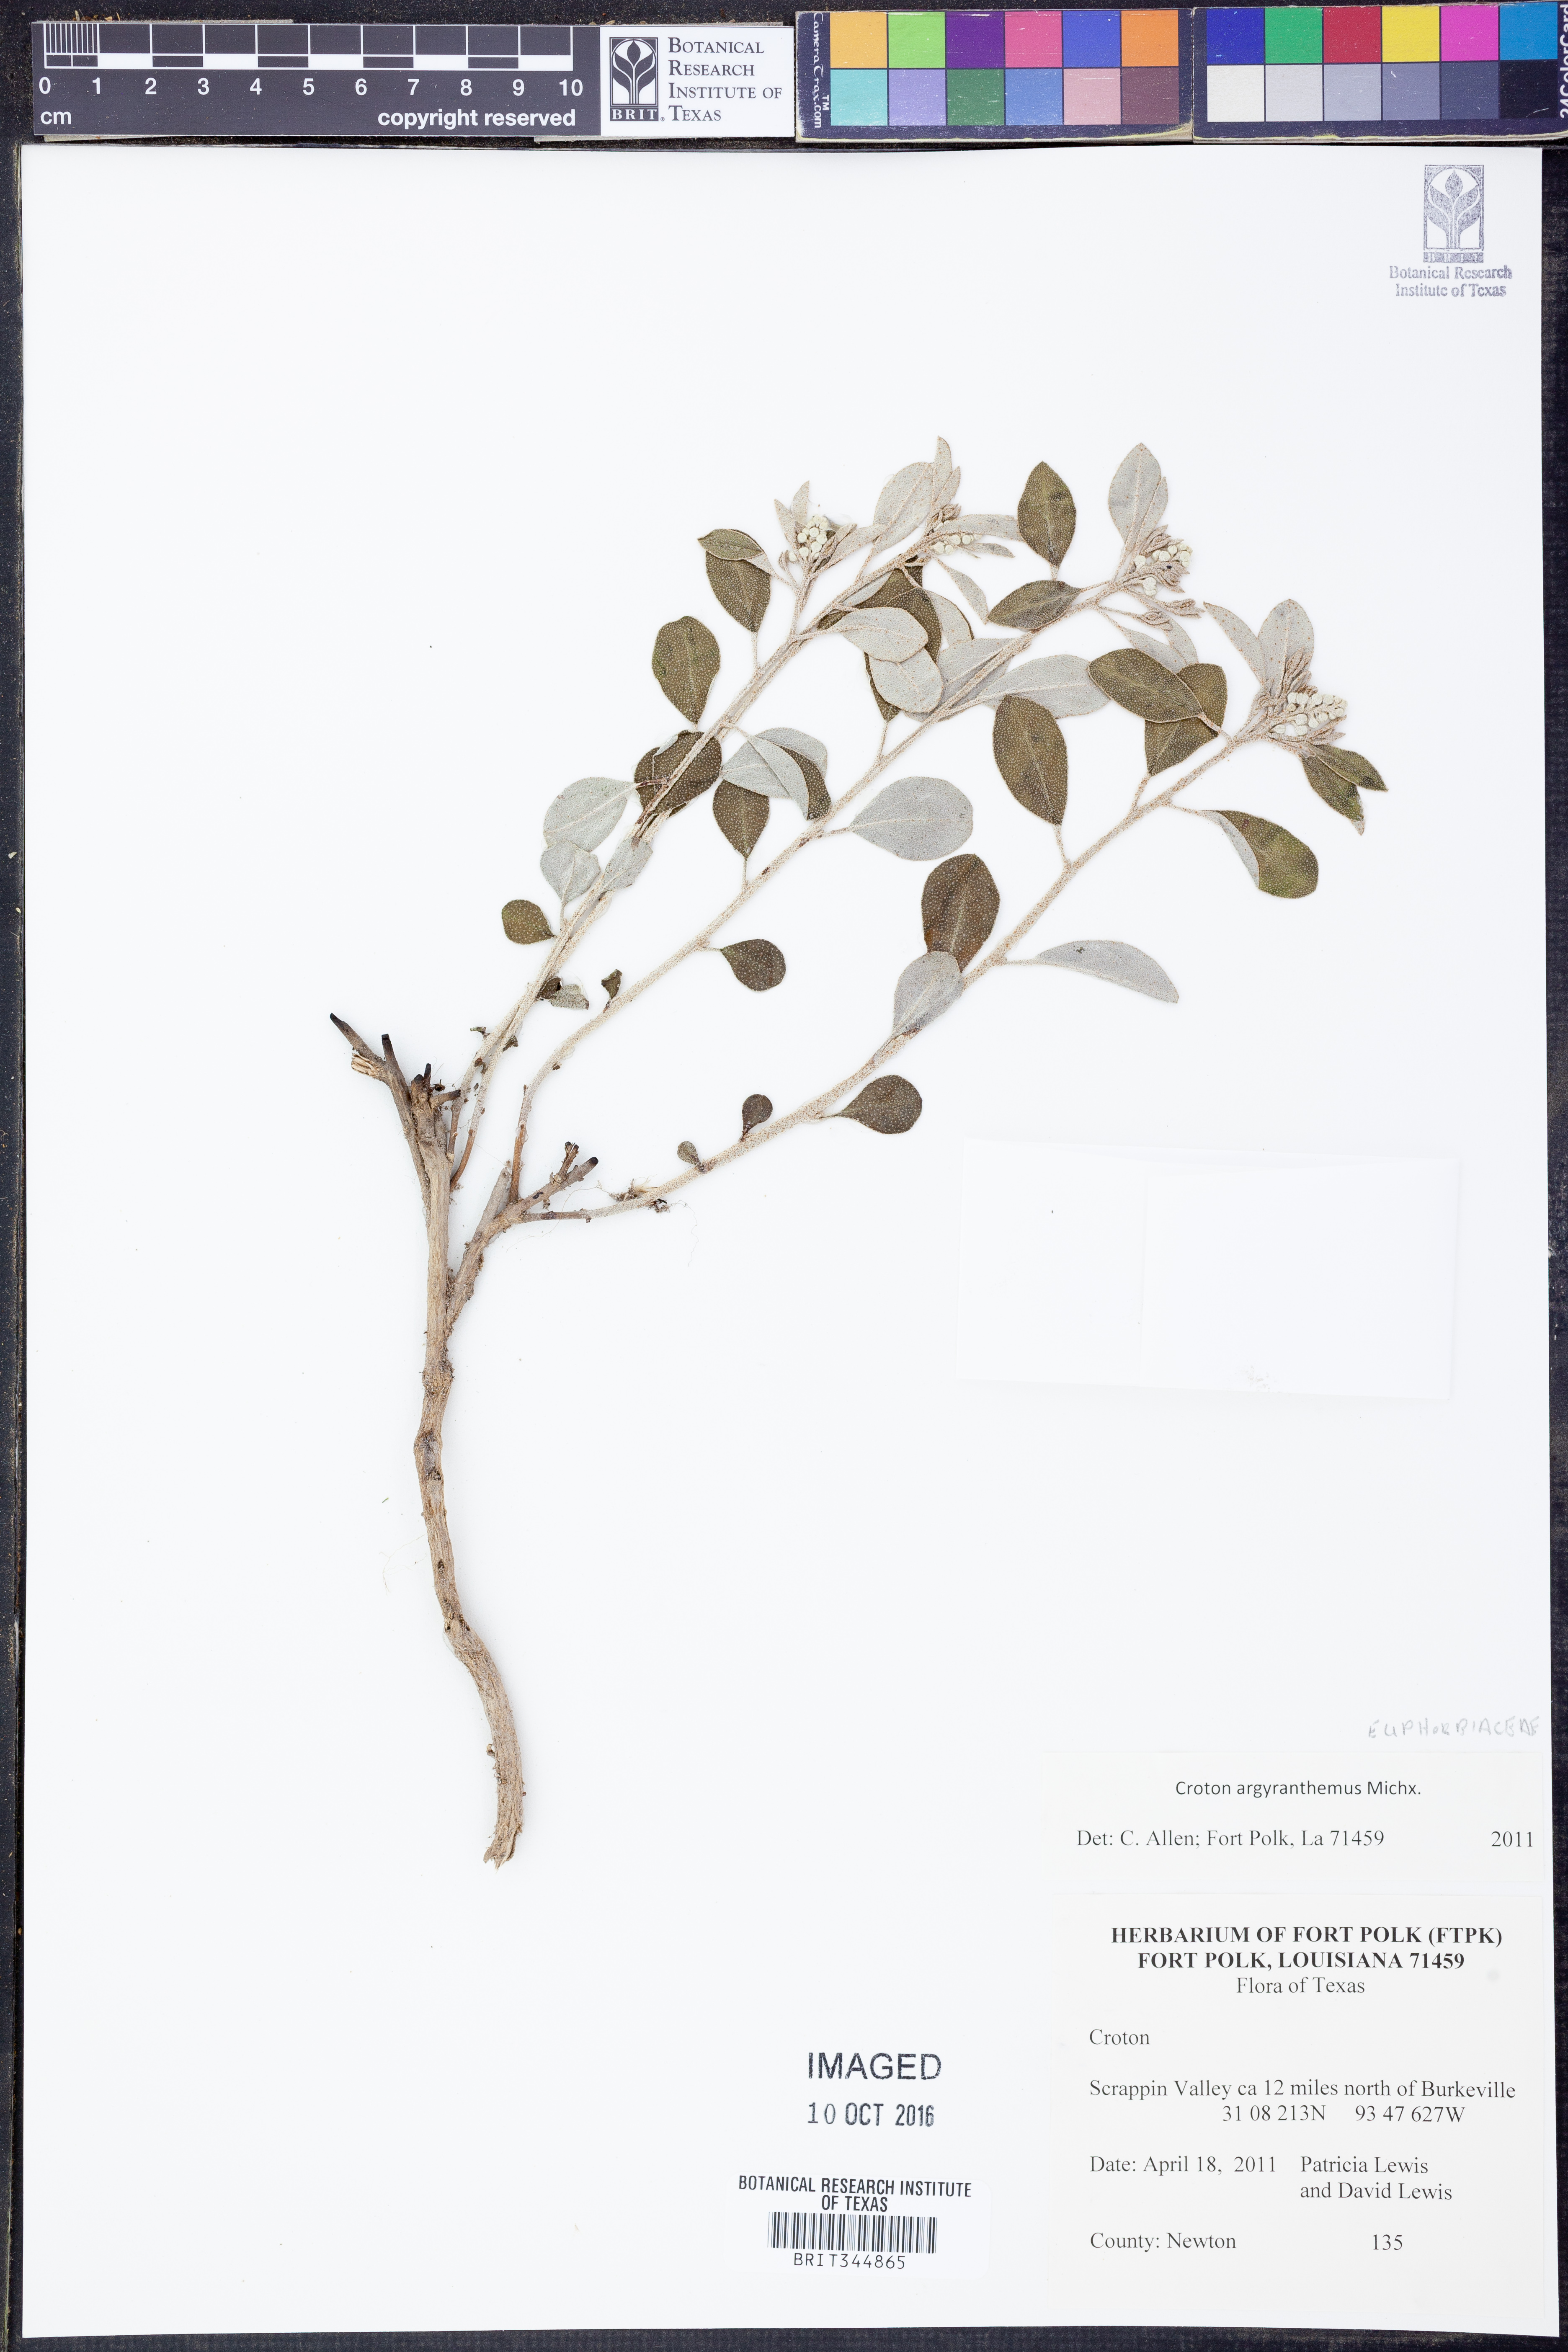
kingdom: Plantae
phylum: Tracheophyta
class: Magnoliopsida
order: Malpighiales
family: Euphorbiaceae
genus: Croton
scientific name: Croton argyranthemus
